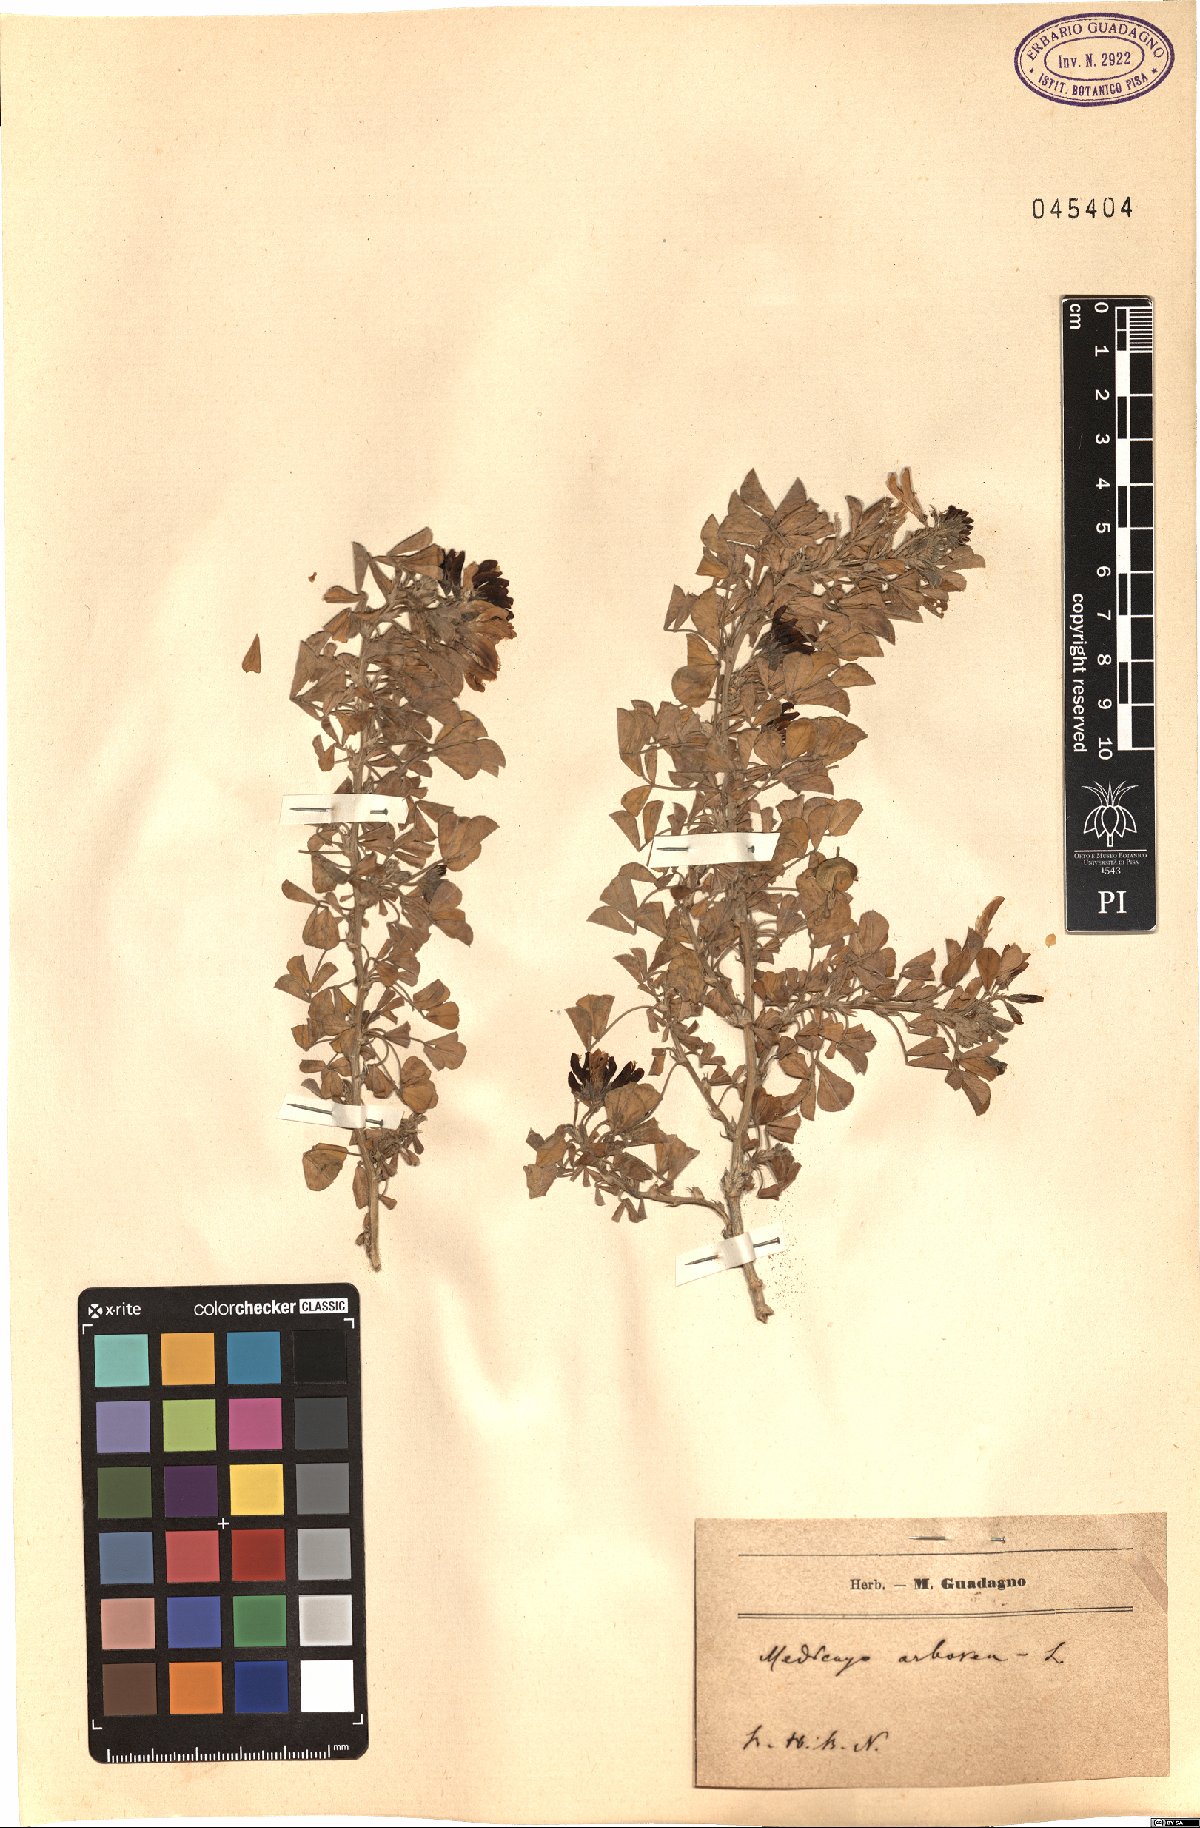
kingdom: Plantae
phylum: Tracheophyta
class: Magnoliopsida
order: Fabales
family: Fabaceae
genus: Medicago
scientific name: Medicago arborea
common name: Moon trefoil
